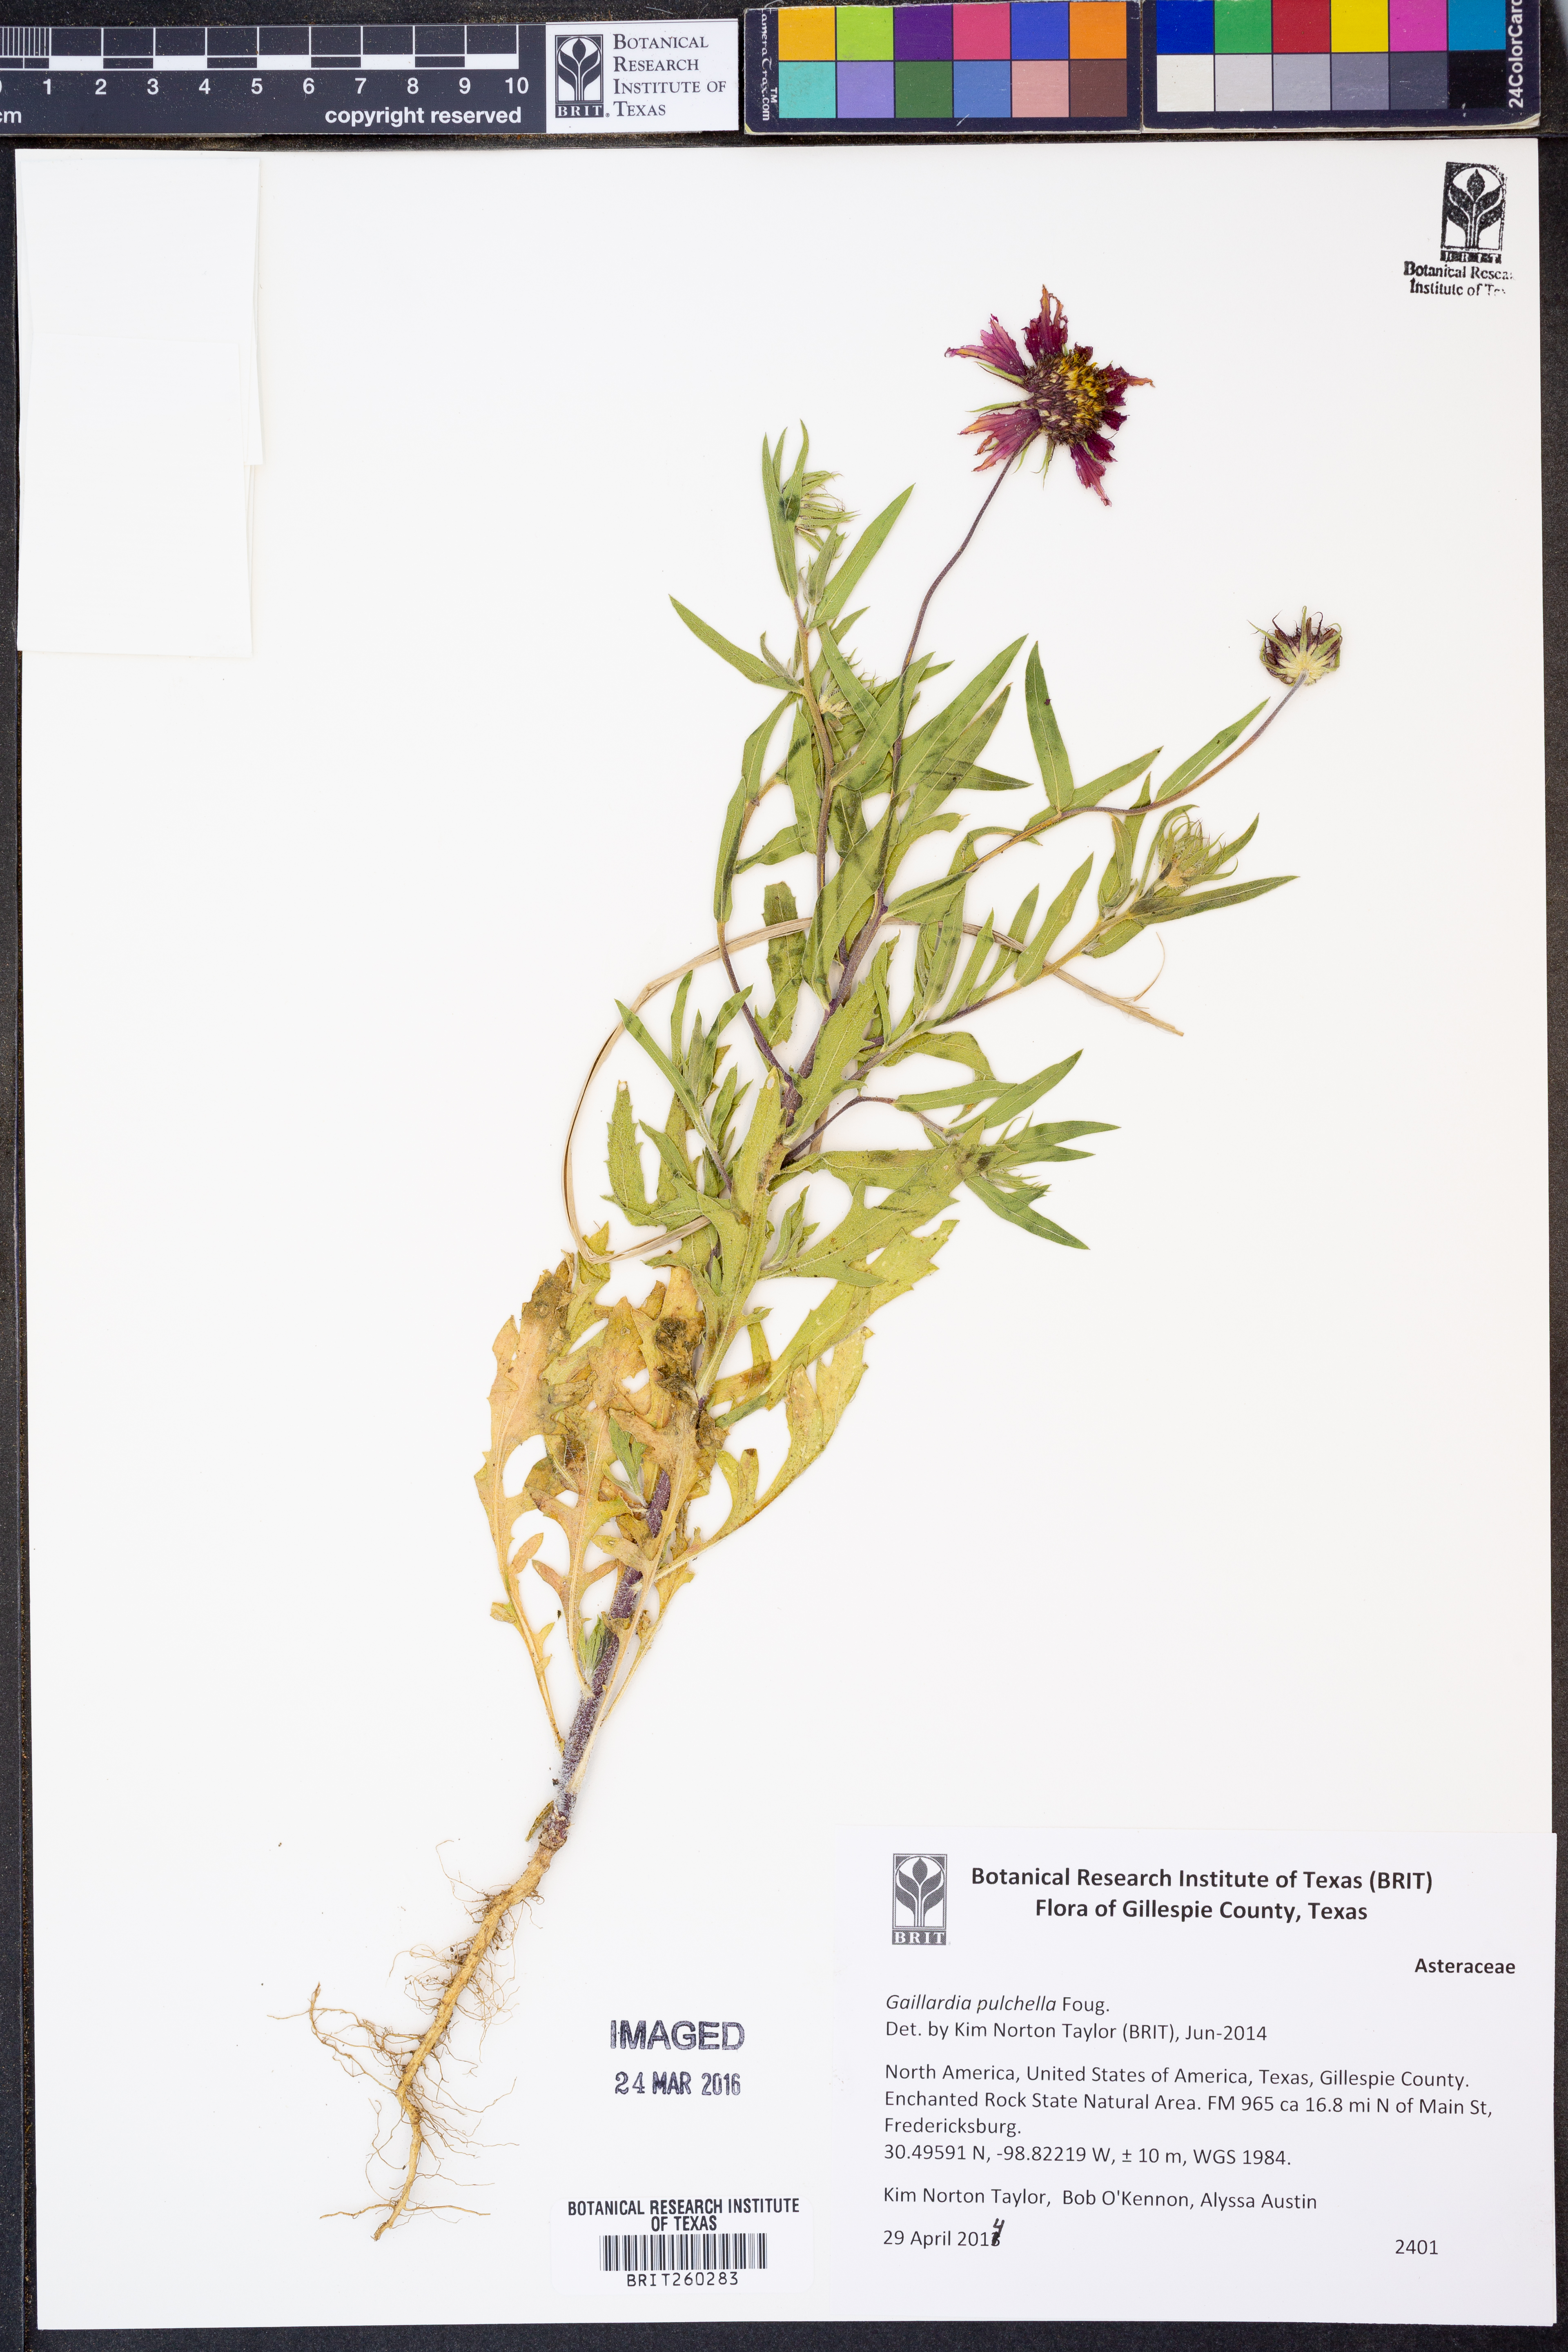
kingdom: Plantae
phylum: Tracheophyta
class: Magnoliopsida
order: Asterales
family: Asteraceae
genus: Gaillardia
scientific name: Gaillardia pulchella
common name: Firewheel
